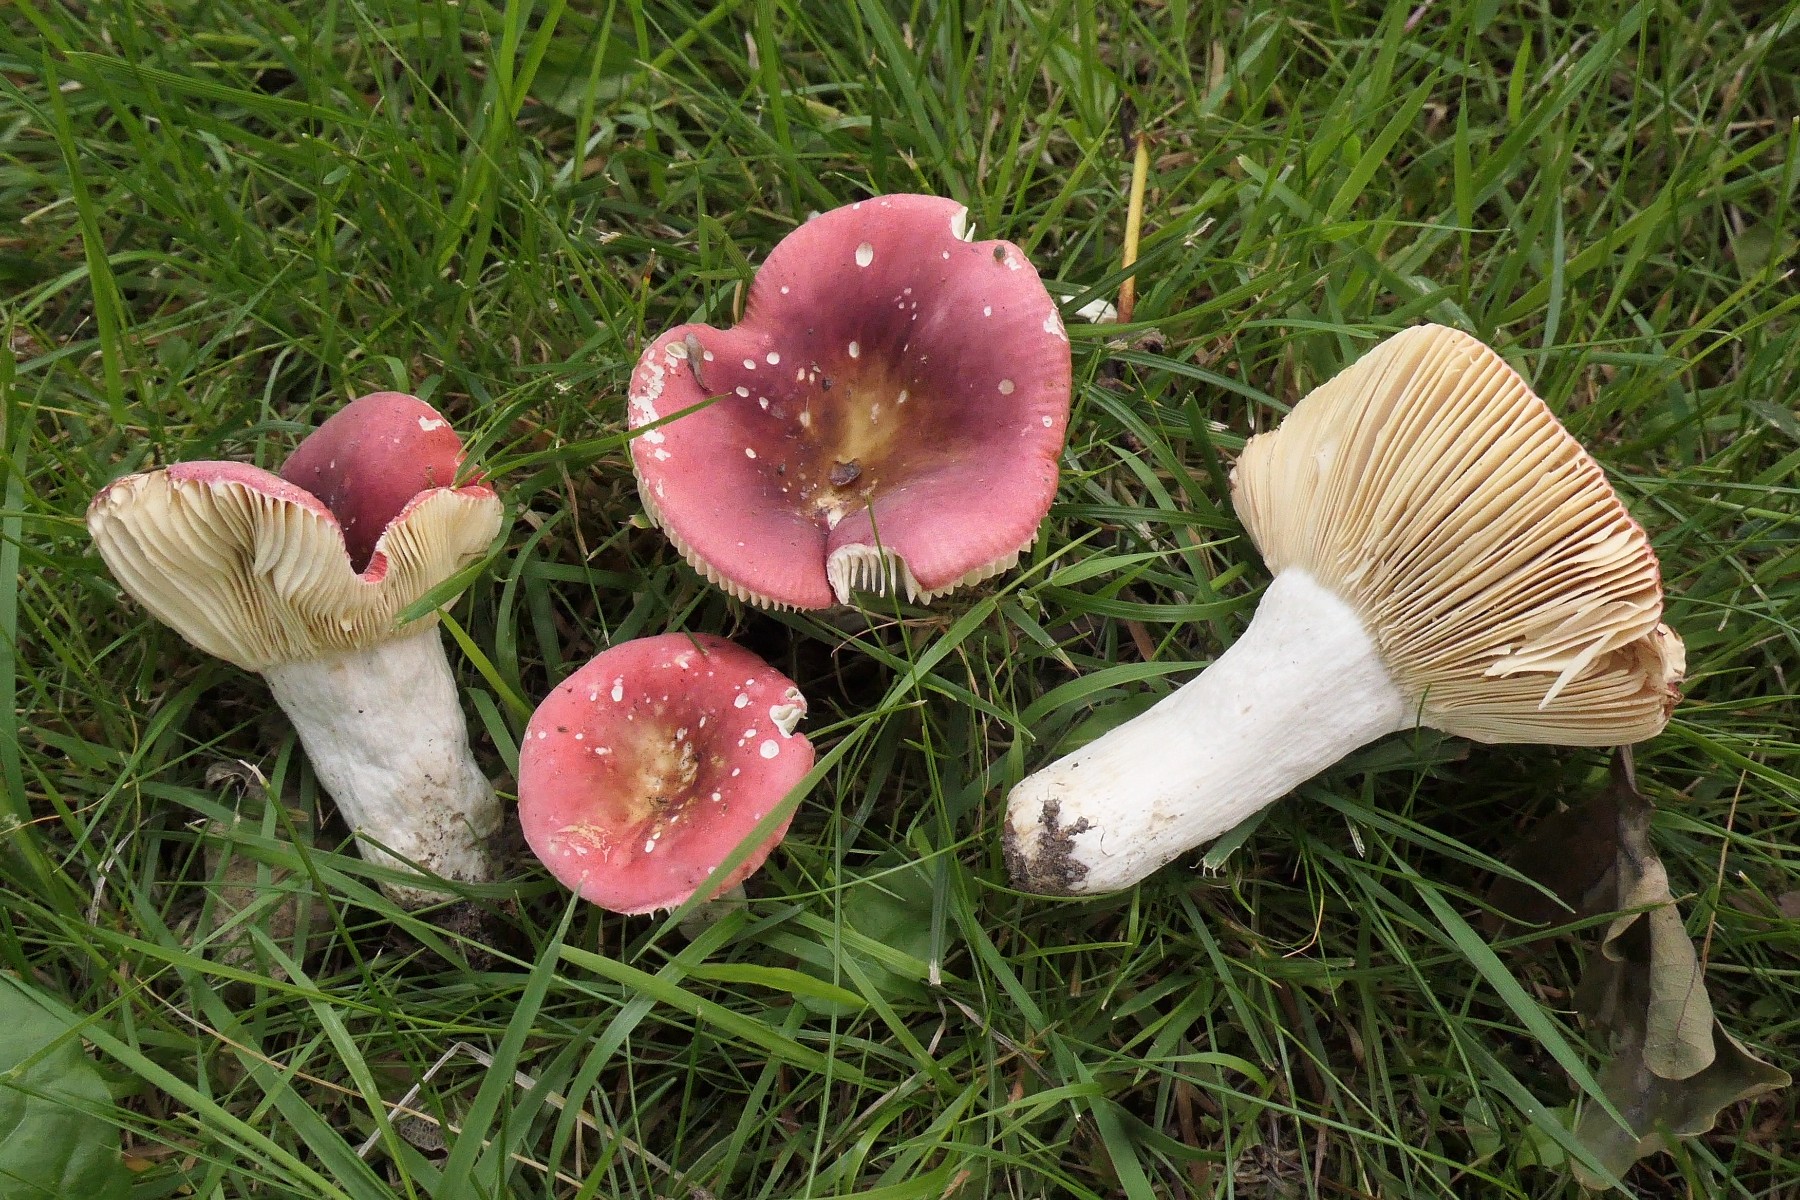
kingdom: Fungi
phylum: Basidiomycota
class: Agaricomycetes
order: Russulales
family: Russulaceae
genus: Russula
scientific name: Russula graveolens
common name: bugtet skørhat
